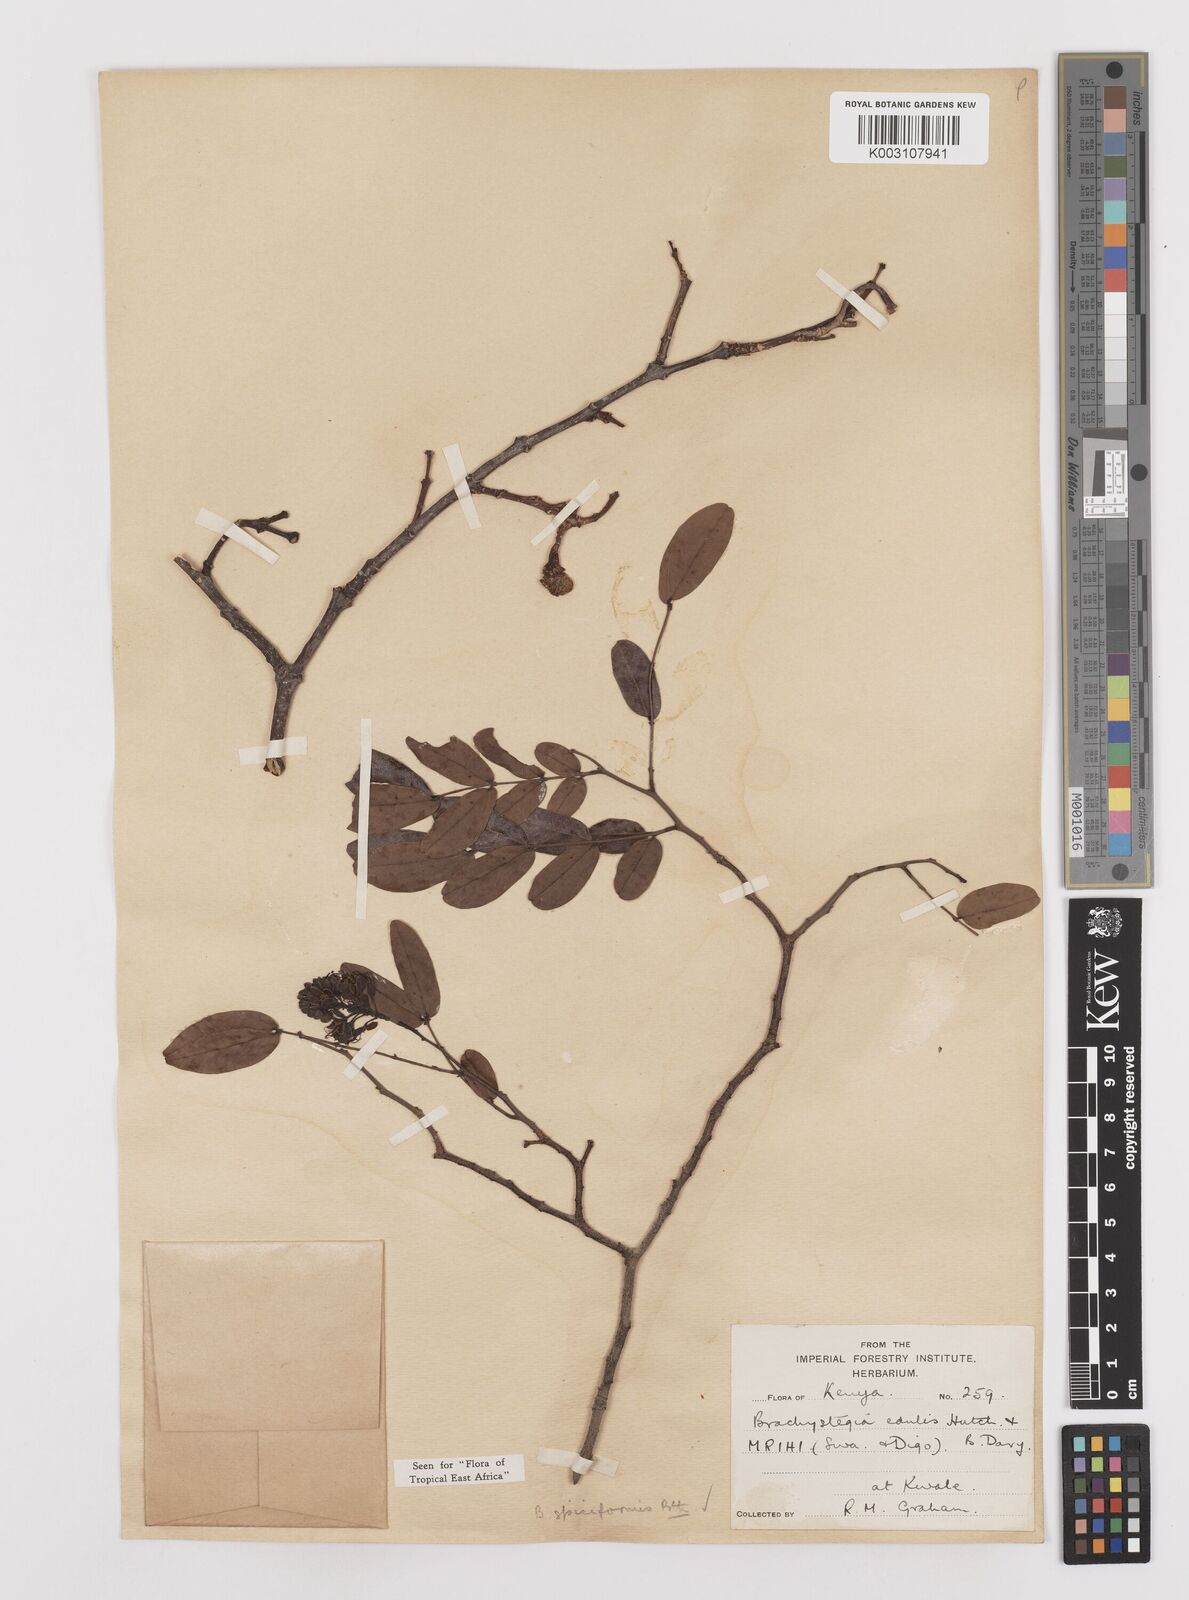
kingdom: Plantae
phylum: Tracheophyta
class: Magnoliopsida
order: Fabales
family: Fabaceae
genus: Brachystegia
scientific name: Brachystegia spiciformis
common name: Zebrawood
